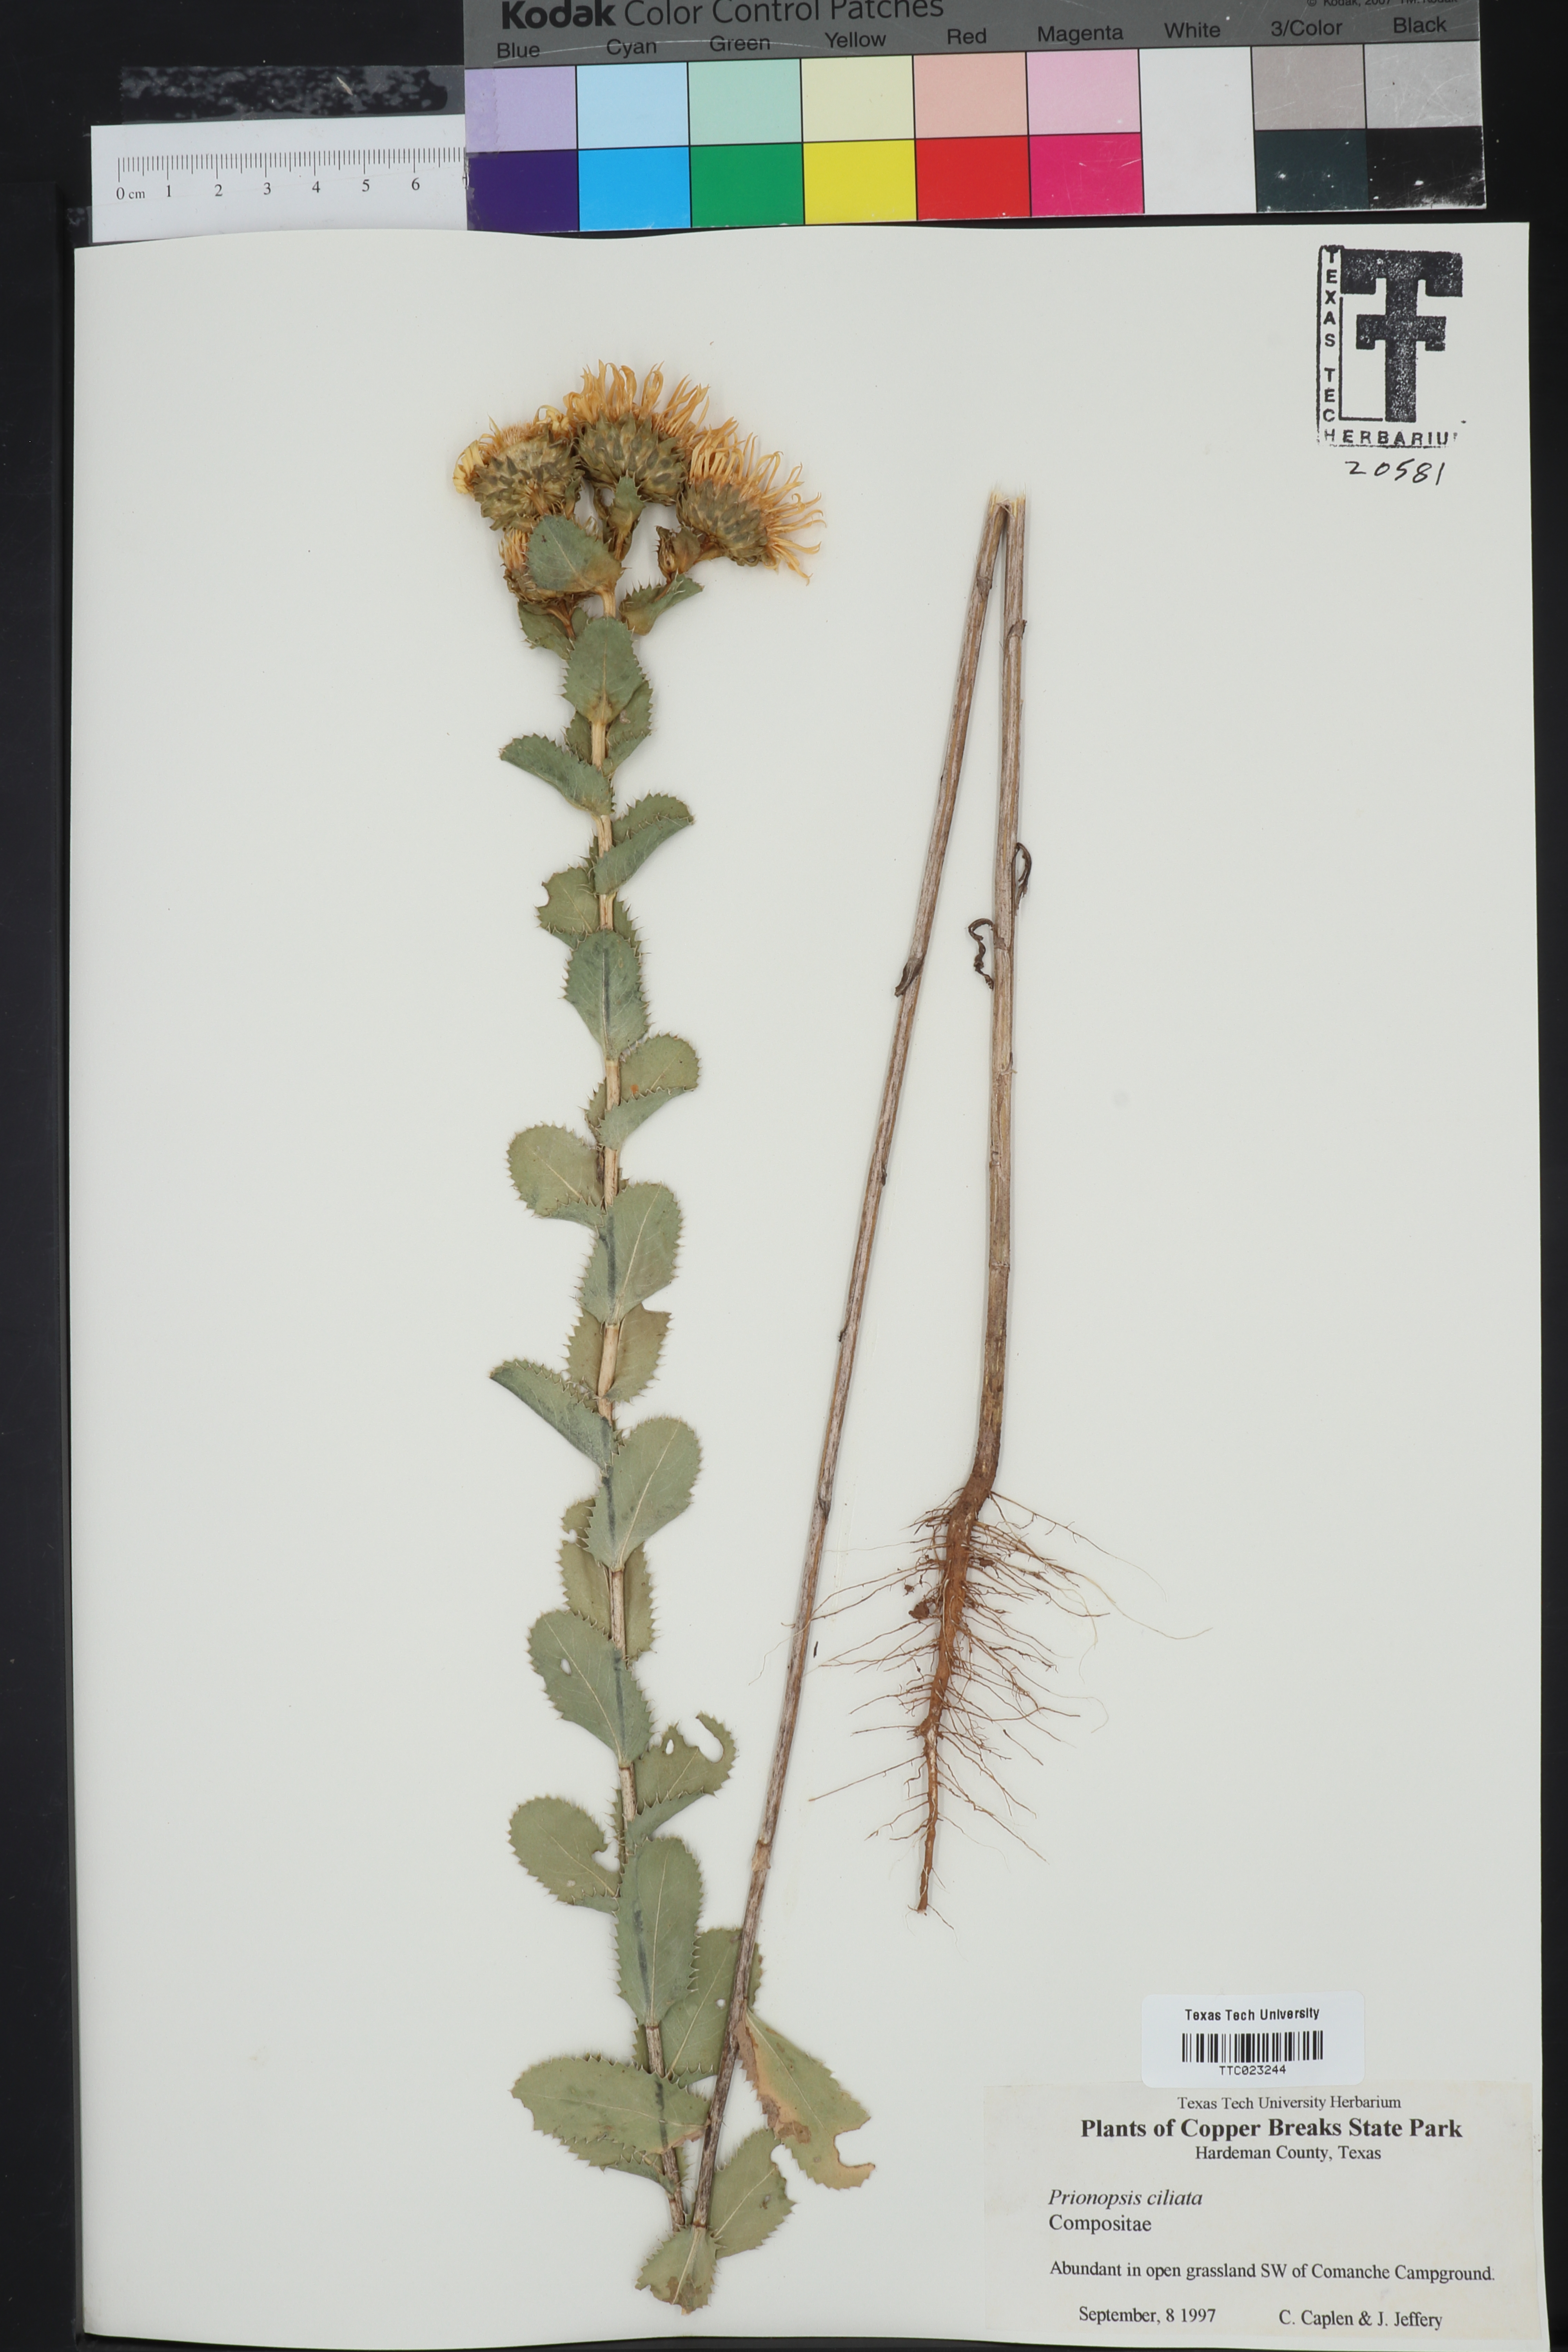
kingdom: Plantae
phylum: Tracheophyta
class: Magnoliopsida
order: Asterales
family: Asteraceae
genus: Grindelia
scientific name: Grindelia ciliata
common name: Goldenweed
